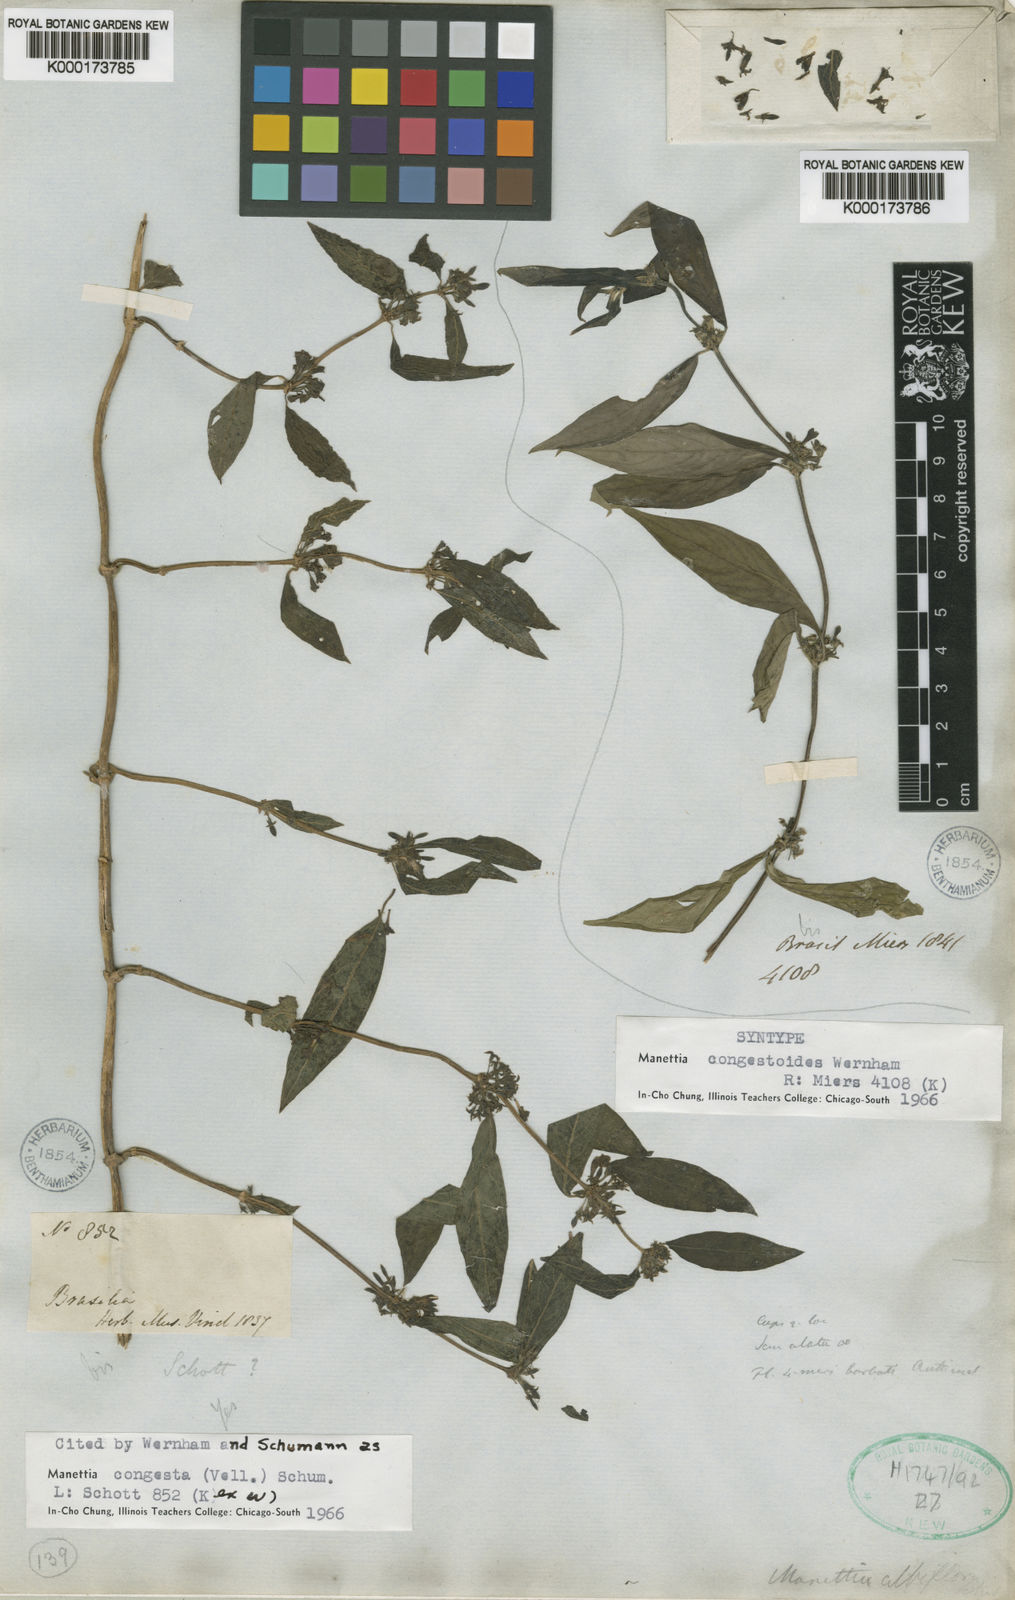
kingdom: Plantae
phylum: Tracheophyta
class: Magnoliopsida
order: Gentianales
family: Rubiaceae
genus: Manettia
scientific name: Manettia congestoides
